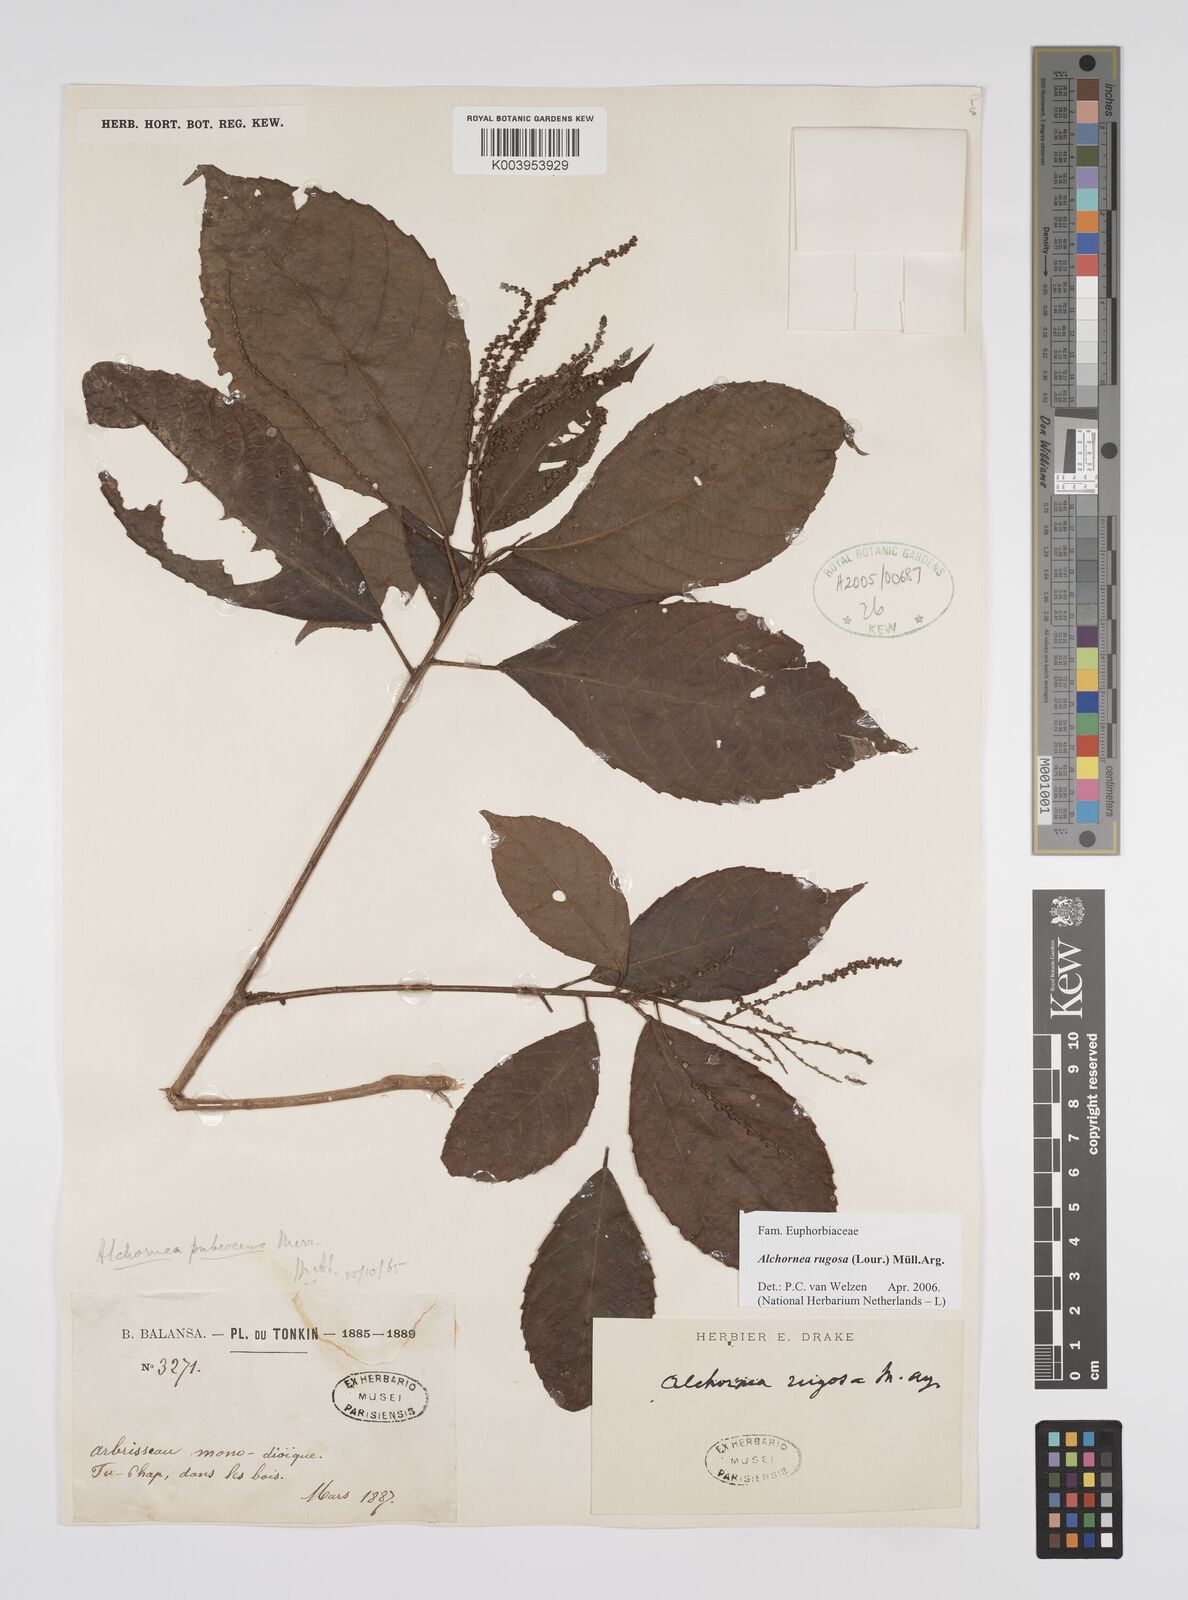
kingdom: Plantae
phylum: Tracheophyta
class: Magnoliopsida
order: Malpighiales
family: Euphorbiaceae
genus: Alchornea
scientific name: Alchornea rugosa
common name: Alchorntree
